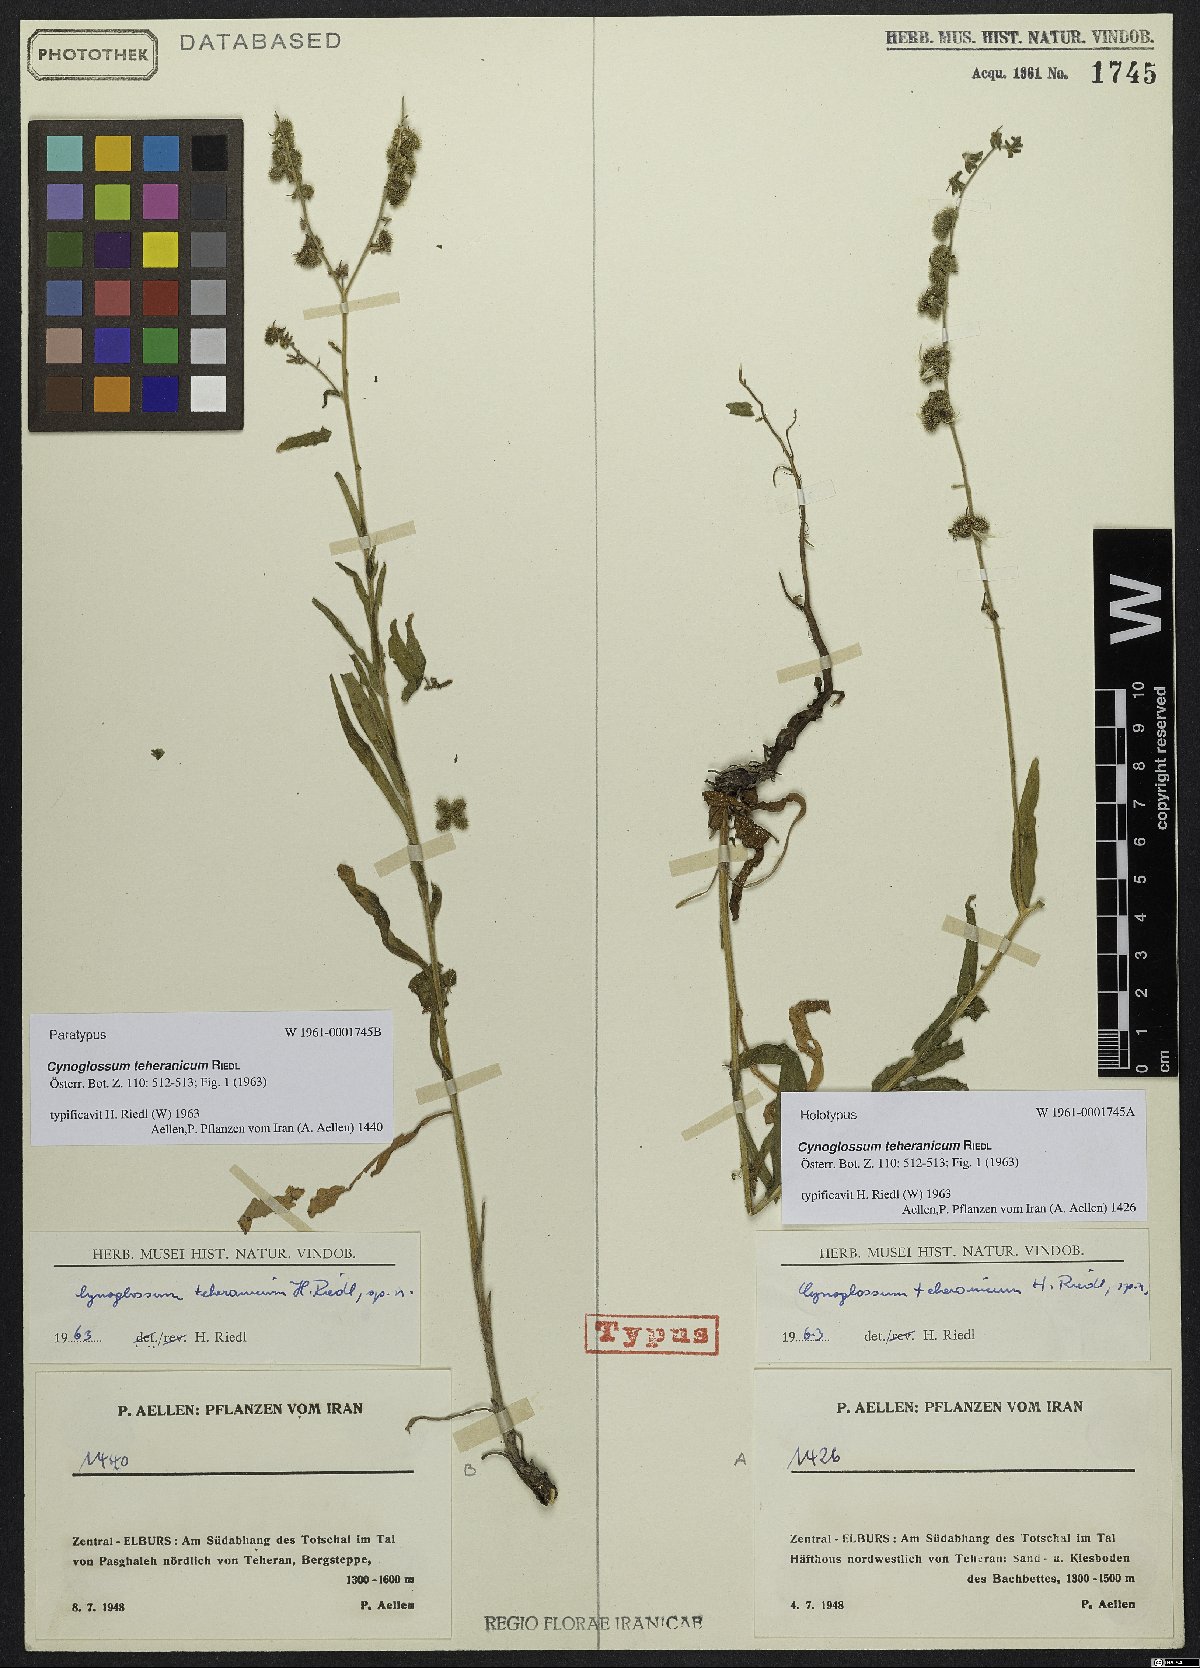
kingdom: Plantae
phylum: Tracheophyta
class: Magnoliopsida
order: Boraginales
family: Boraginaceae
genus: Cynoglossum
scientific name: Cynoglossum montanum
